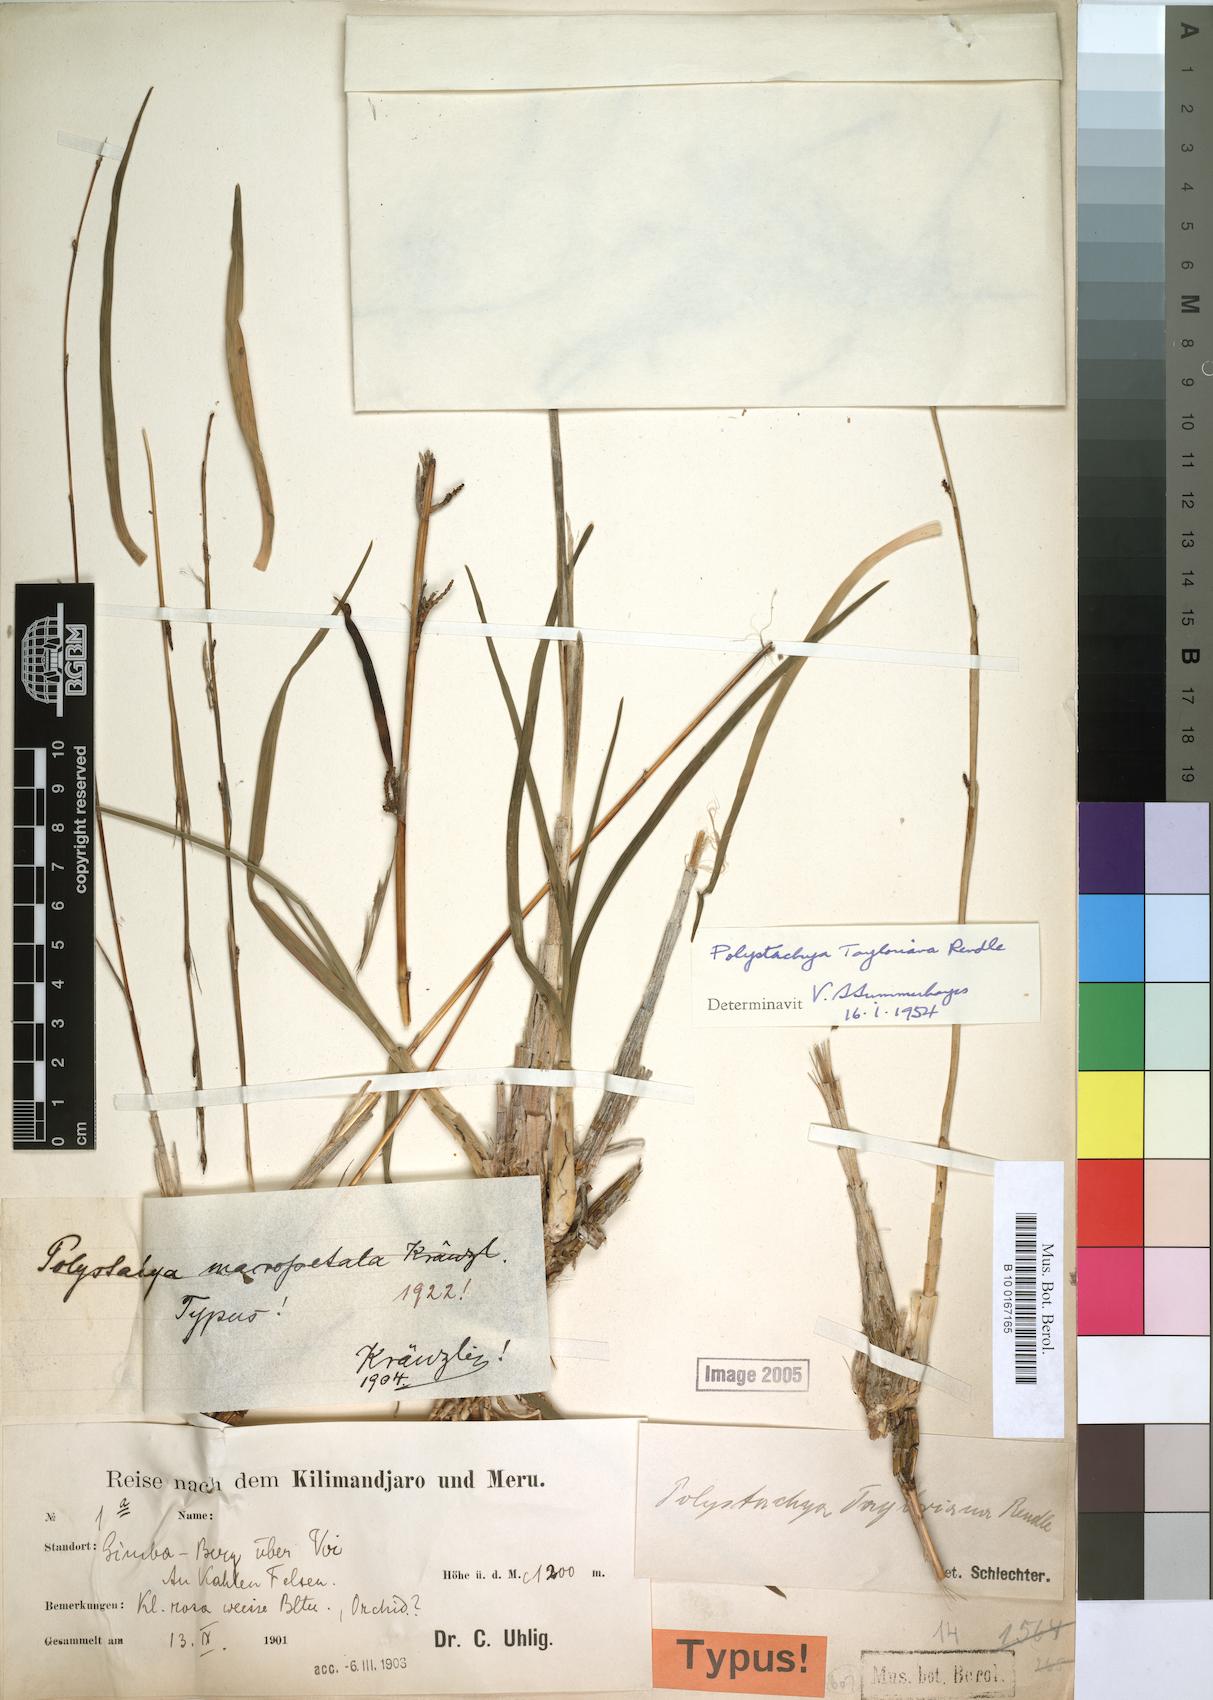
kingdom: Plantae
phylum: Tracheophyta
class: Liliopsida
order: Asparagales
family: Orchidaceae
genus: Polystachya
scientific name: Polystachya dendrobiiflora
